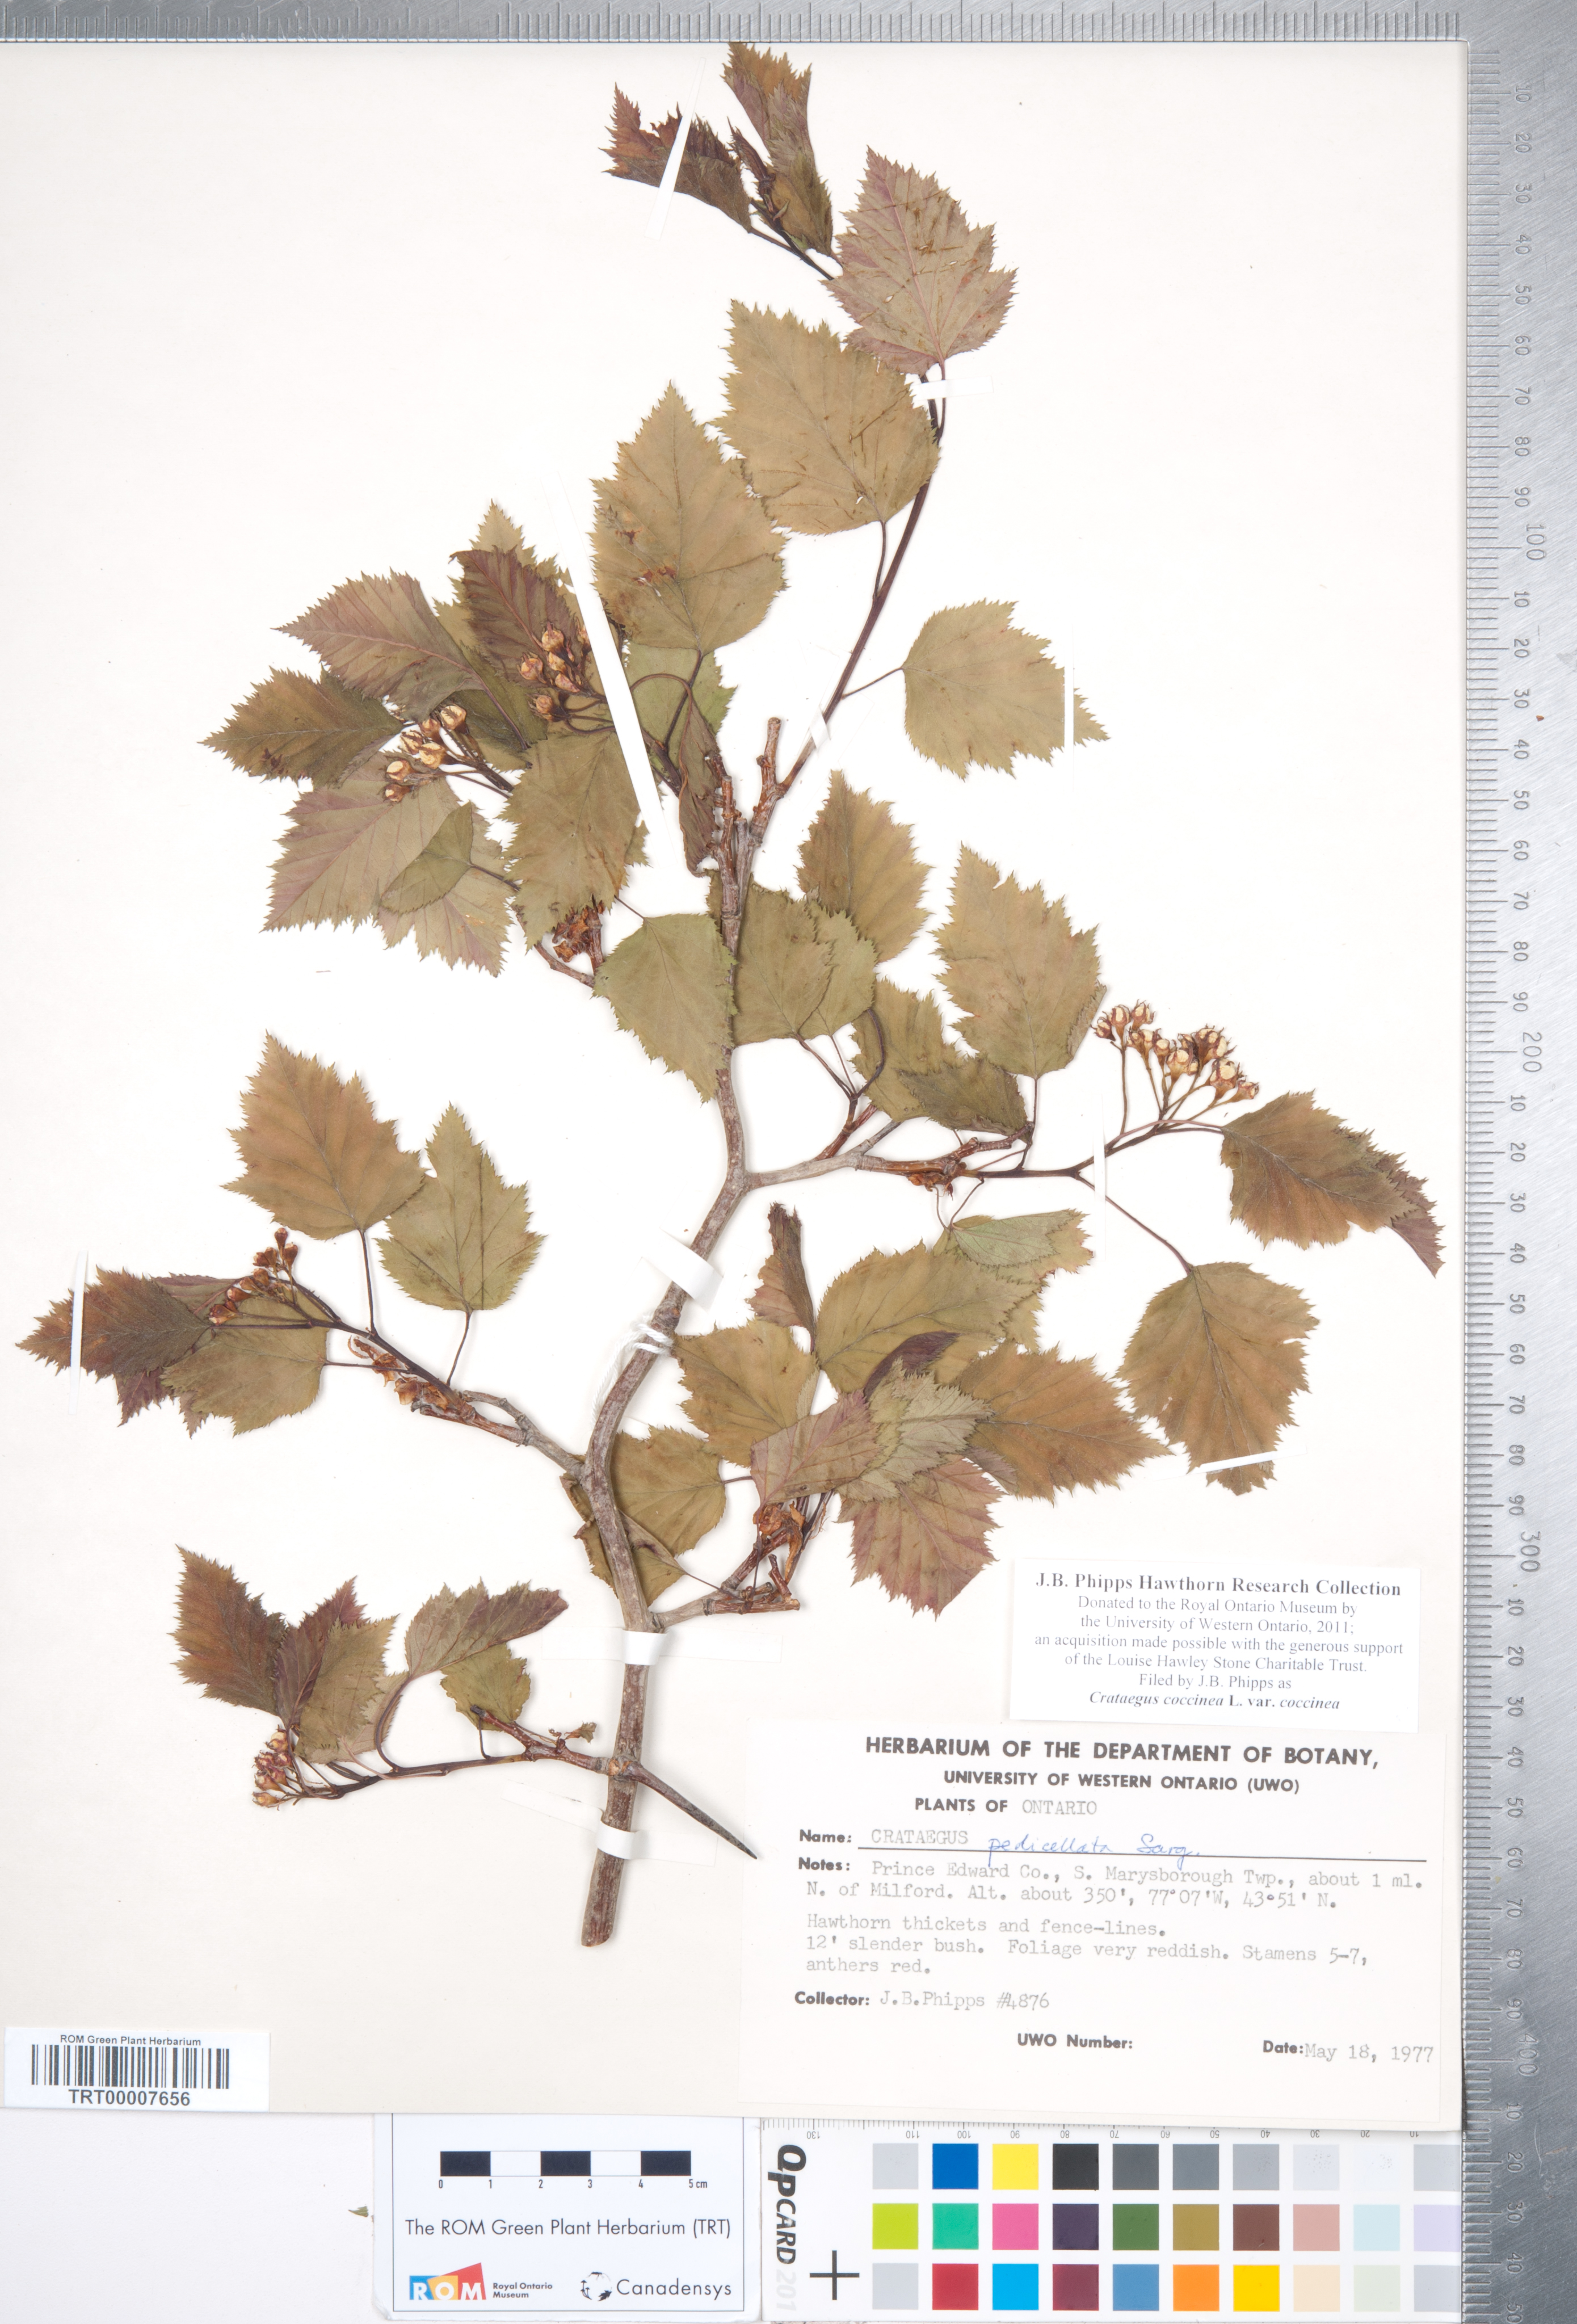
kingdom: Plantae
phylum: Tracheophyta
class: Magnoliopsida
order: Rosales
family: Rosaceae
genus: Crataegus
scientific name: Crataegus coccinea
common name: Scarlet hawthorn
